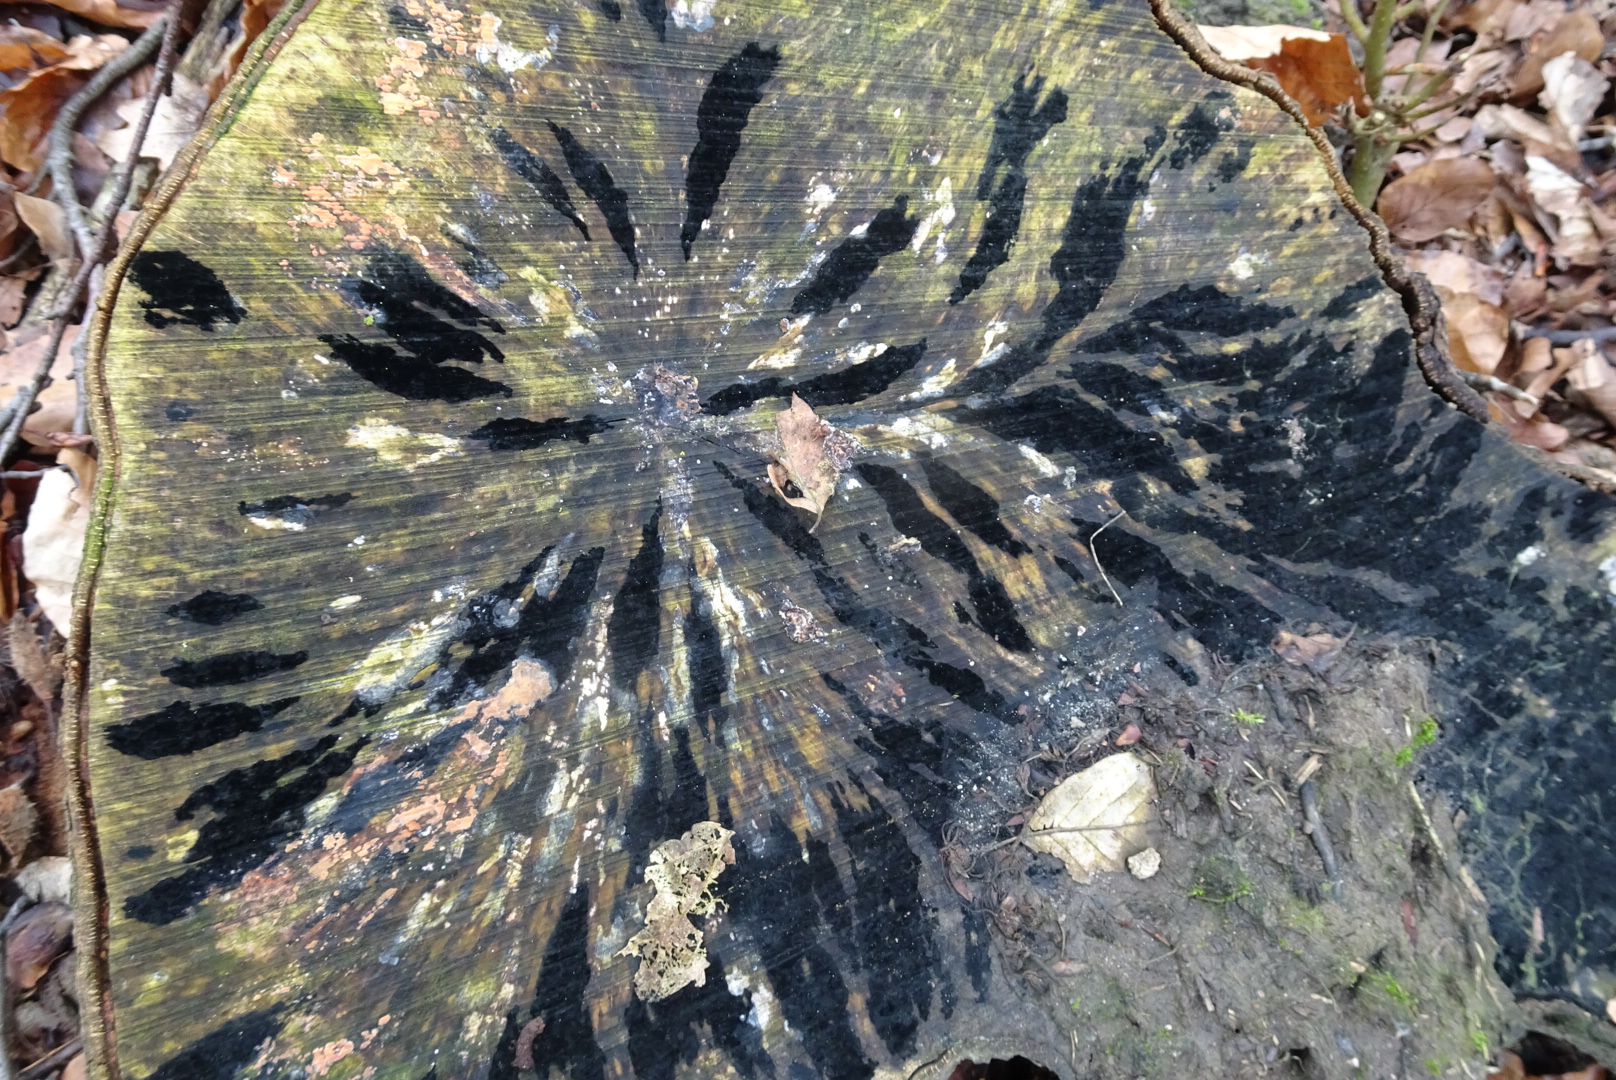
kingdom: Fungi
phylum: Ascomycota
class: Leotiomycetes
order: Helotiales
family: Helotiaceae
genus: Bispora
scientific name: Bispora pallescens
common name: måtte-snitskive
